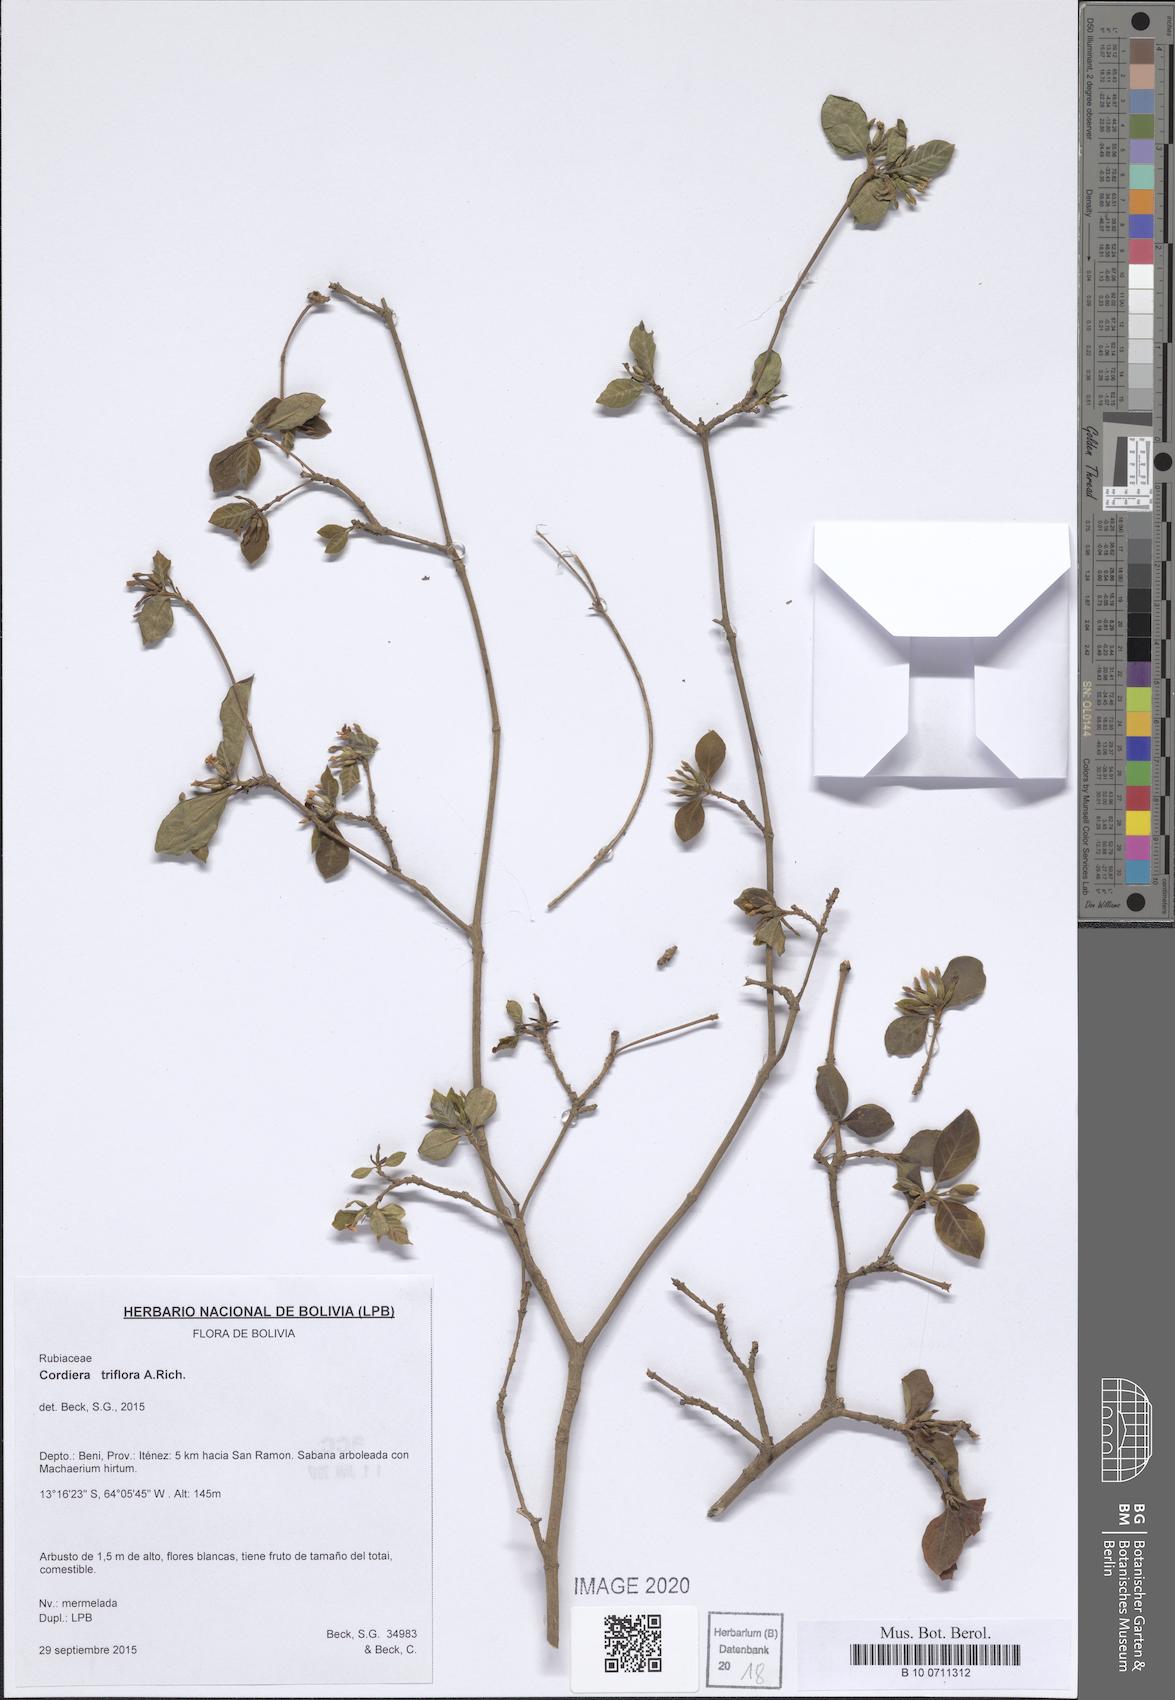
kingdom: Plantae
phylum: Tracheophyta
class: Magnoliopsida
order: Gentianales
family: Rubiaceae
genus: Cordiera
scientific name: Cordiera triflora
